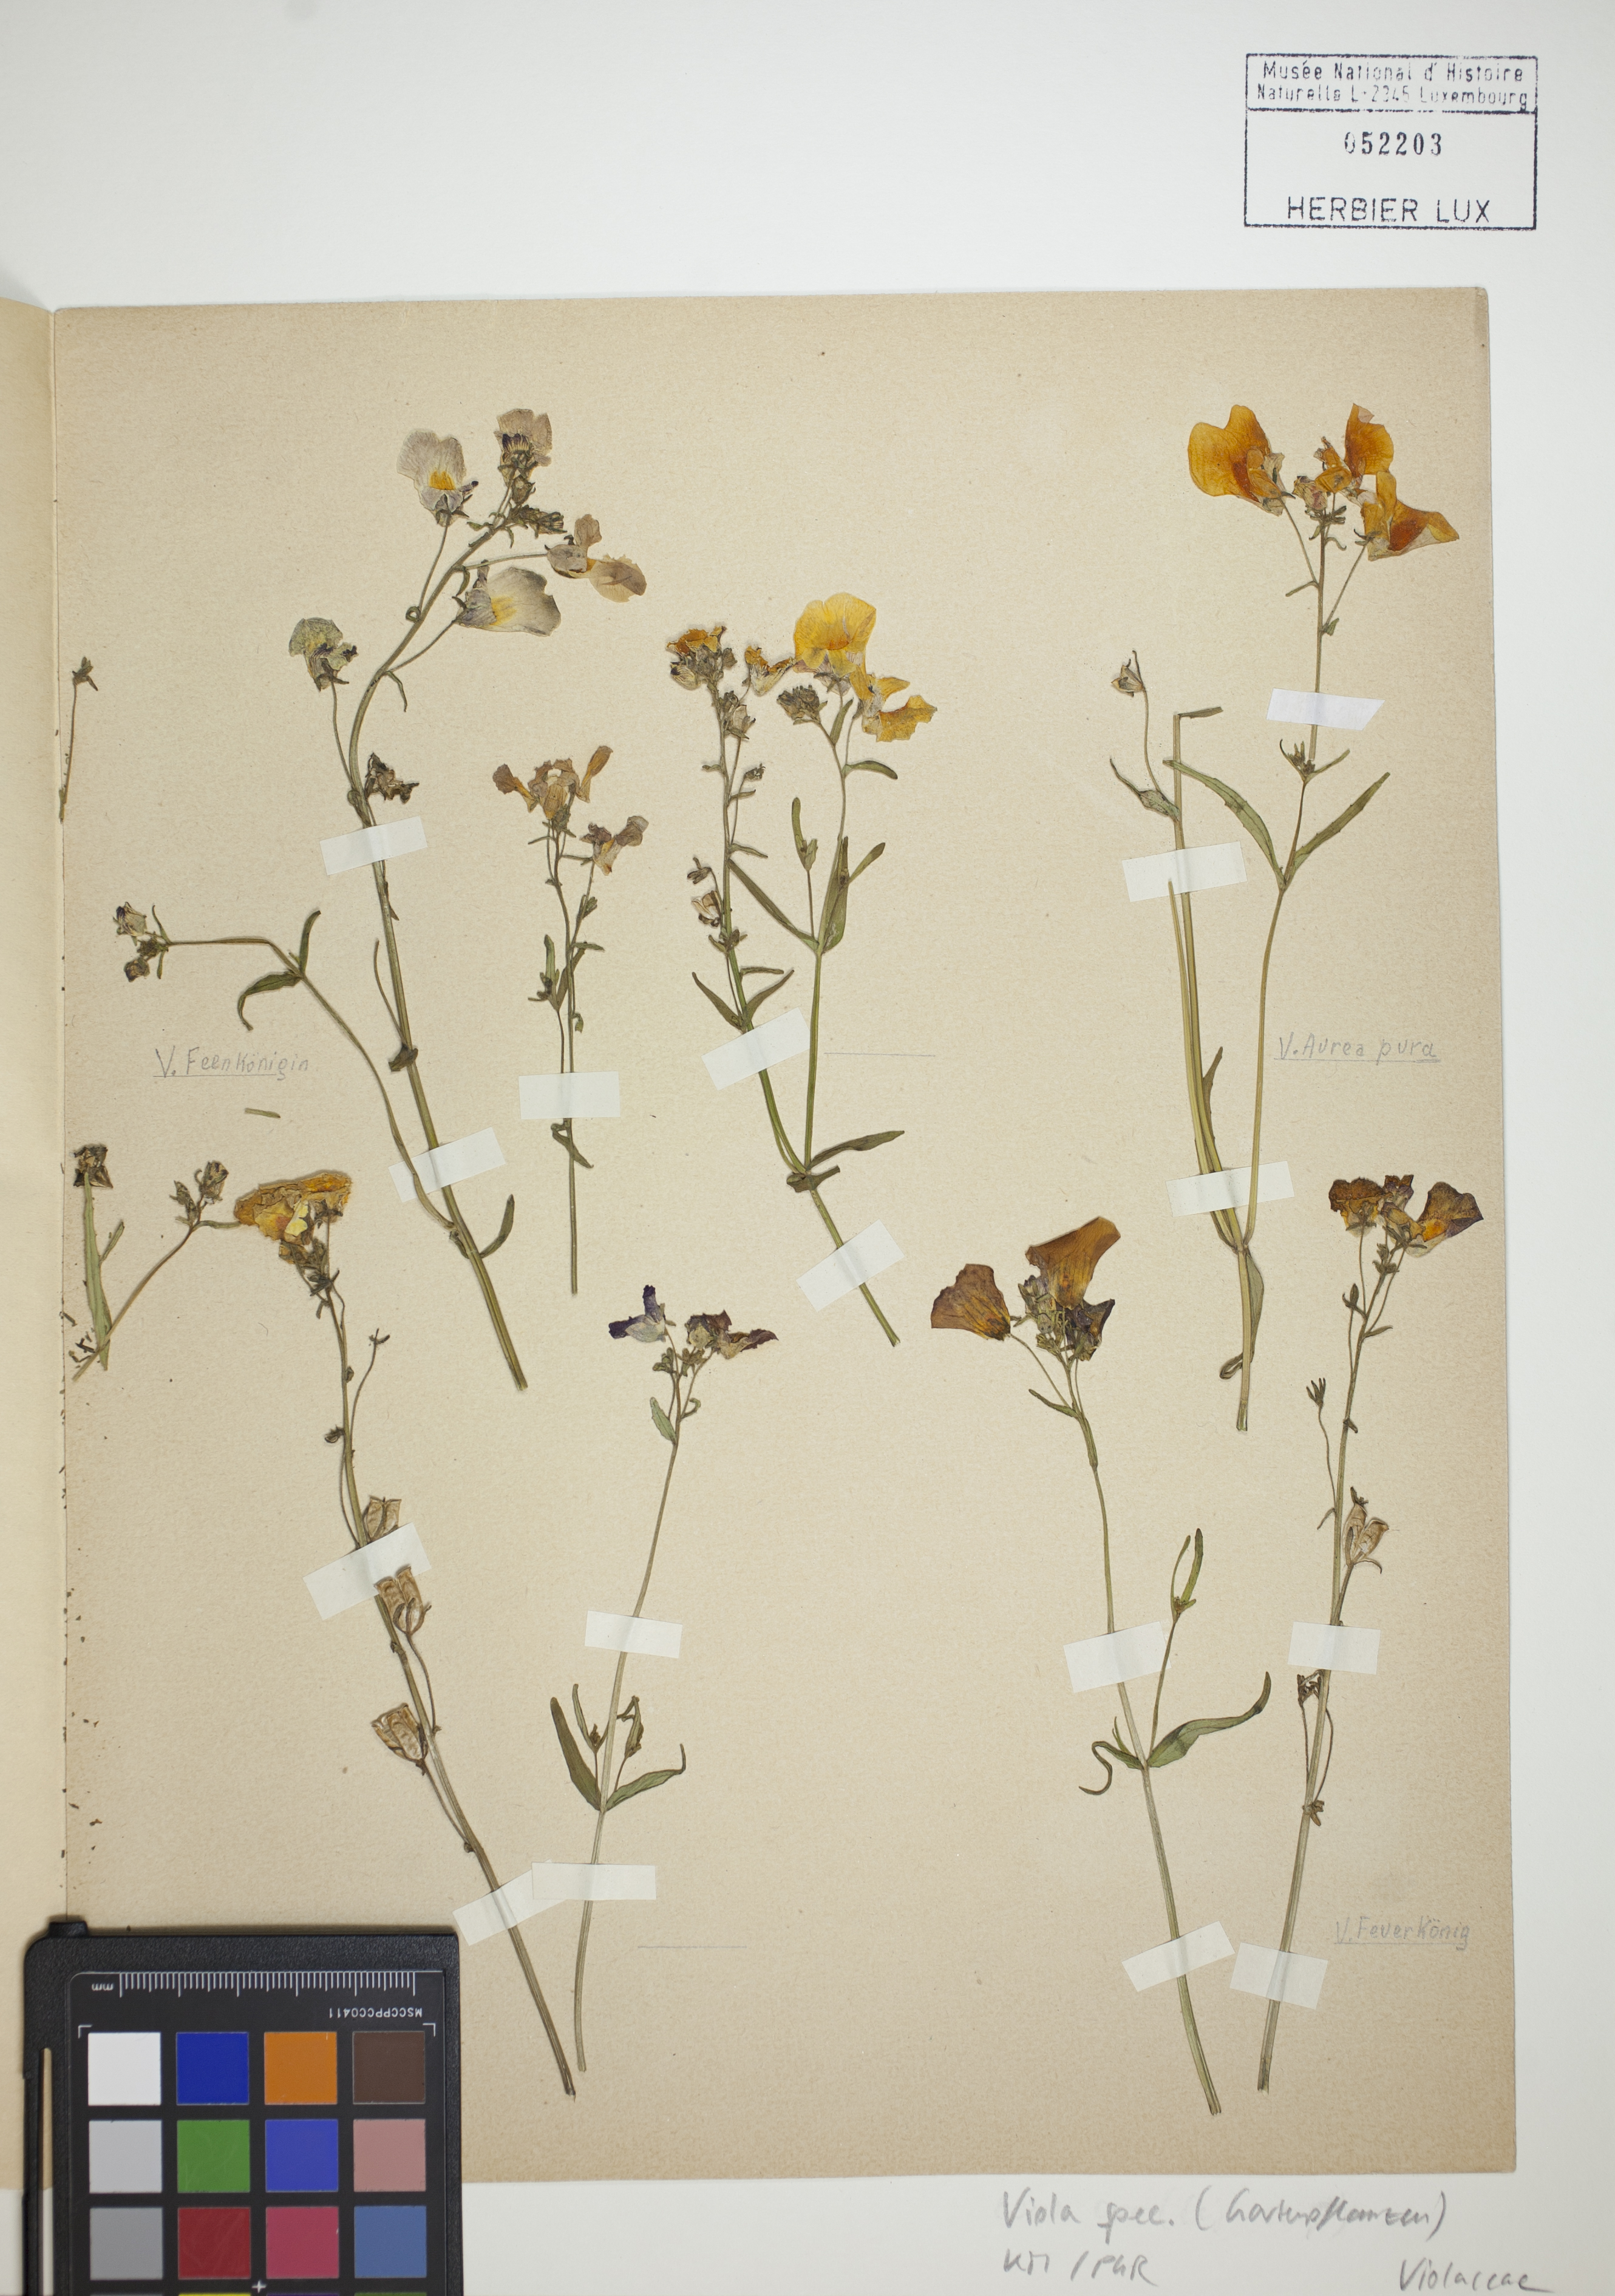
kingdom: Plantae
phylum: Tracheophyta
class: Magnoliopsida
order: Malpighiales
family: Violaceae
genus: Viola
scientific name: Viola
